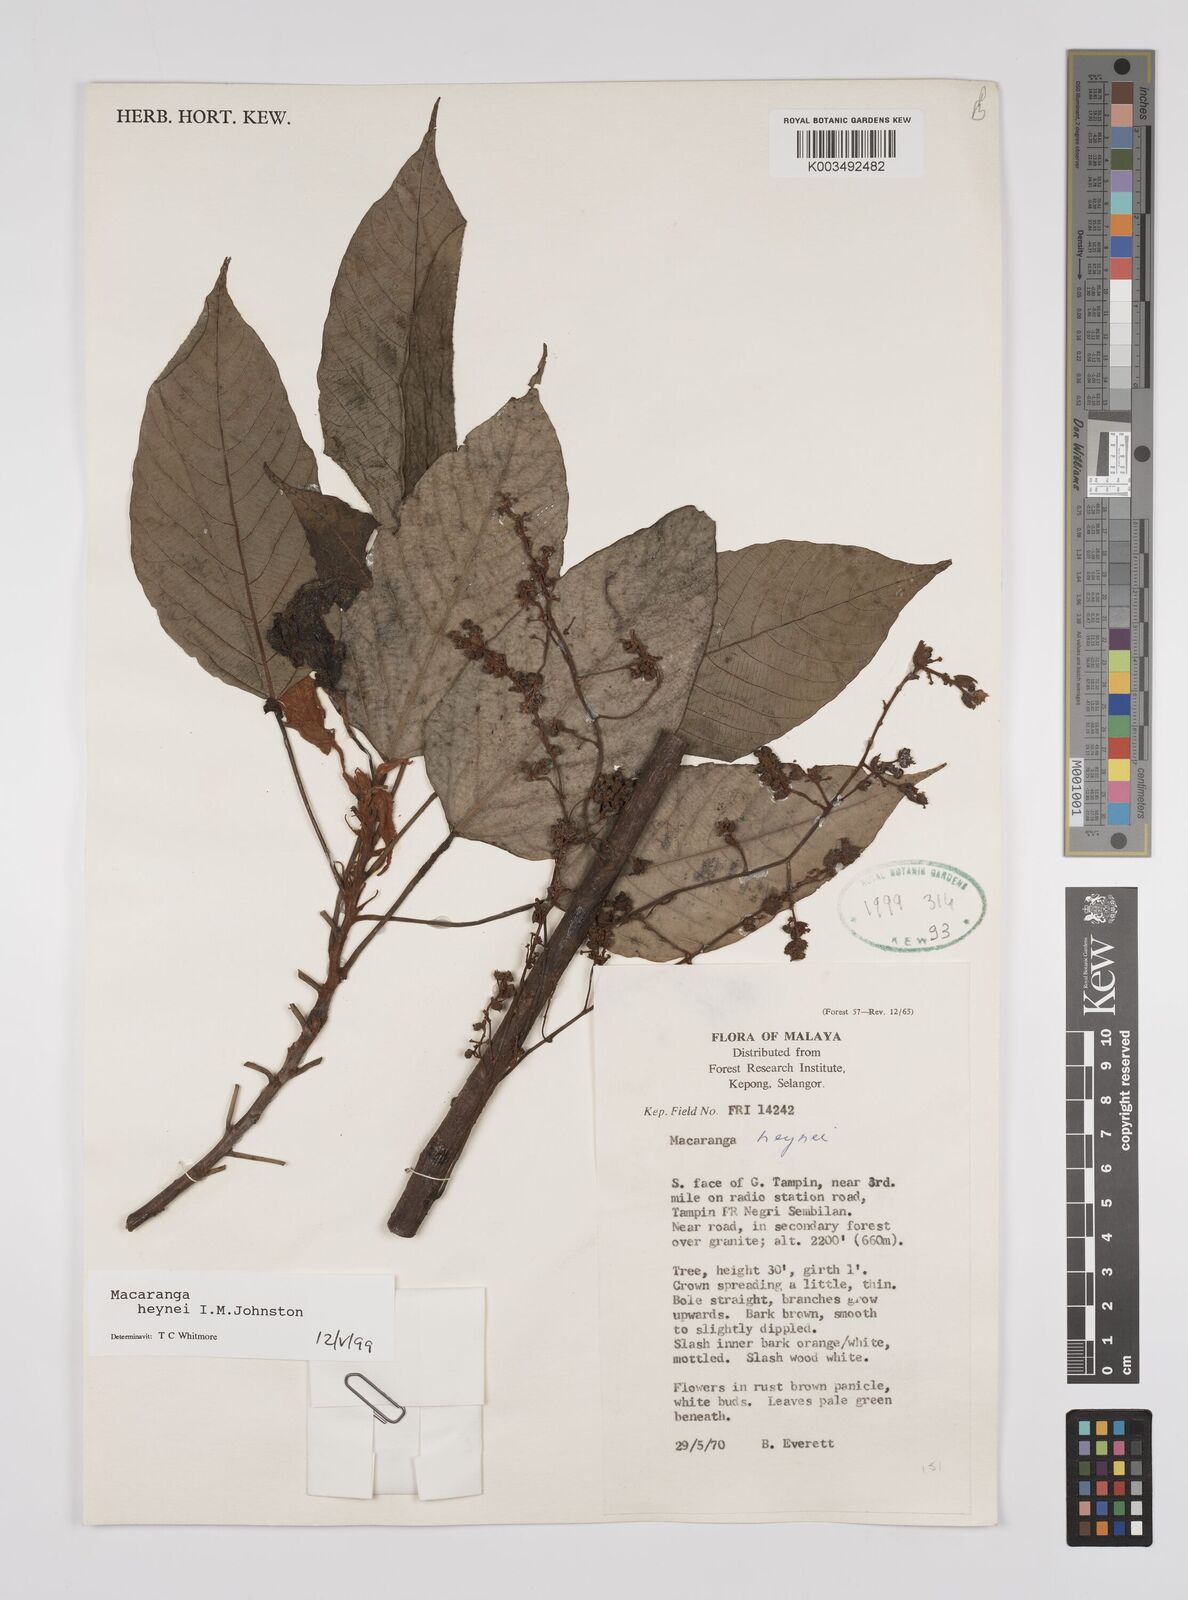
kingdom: Plantae
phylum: Tracheophyta
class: Magnoliopsida
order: Malpighiales
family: Euphorbiaceae
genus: Macaranga
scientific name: Macaranga heynei
